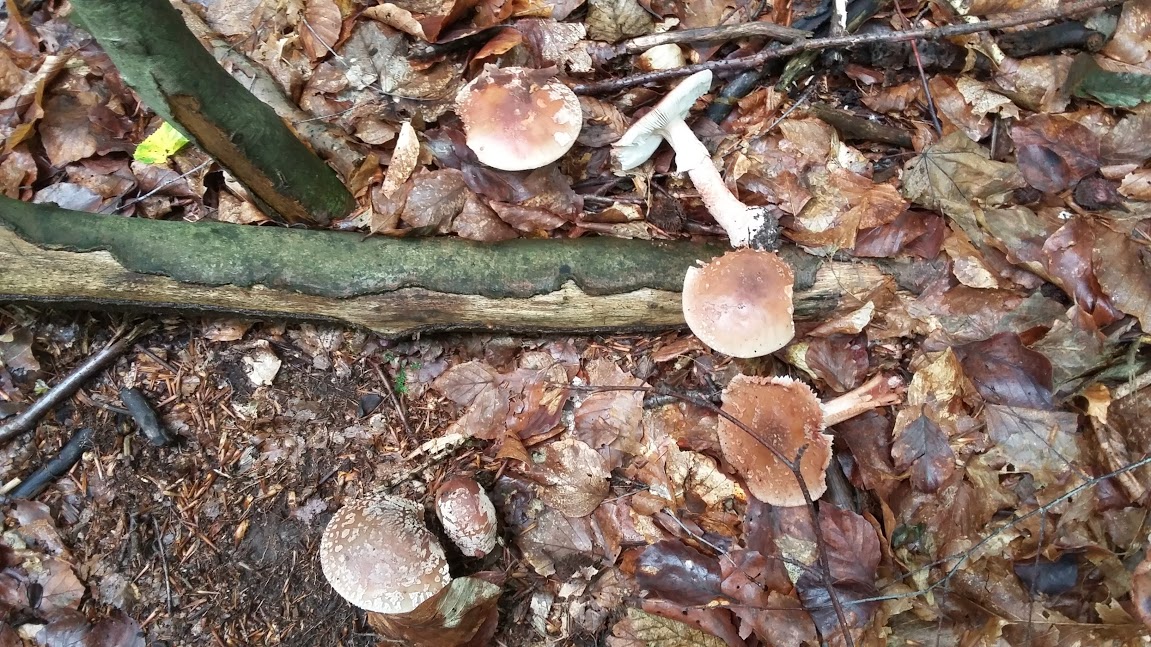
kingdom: Fungi
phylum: Basidiomycota
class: Agaricomycetes
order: Agaricales
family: Amanitaceae
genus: Amanita
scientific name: Amanita rubescens
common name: rødmende fluesvamp
